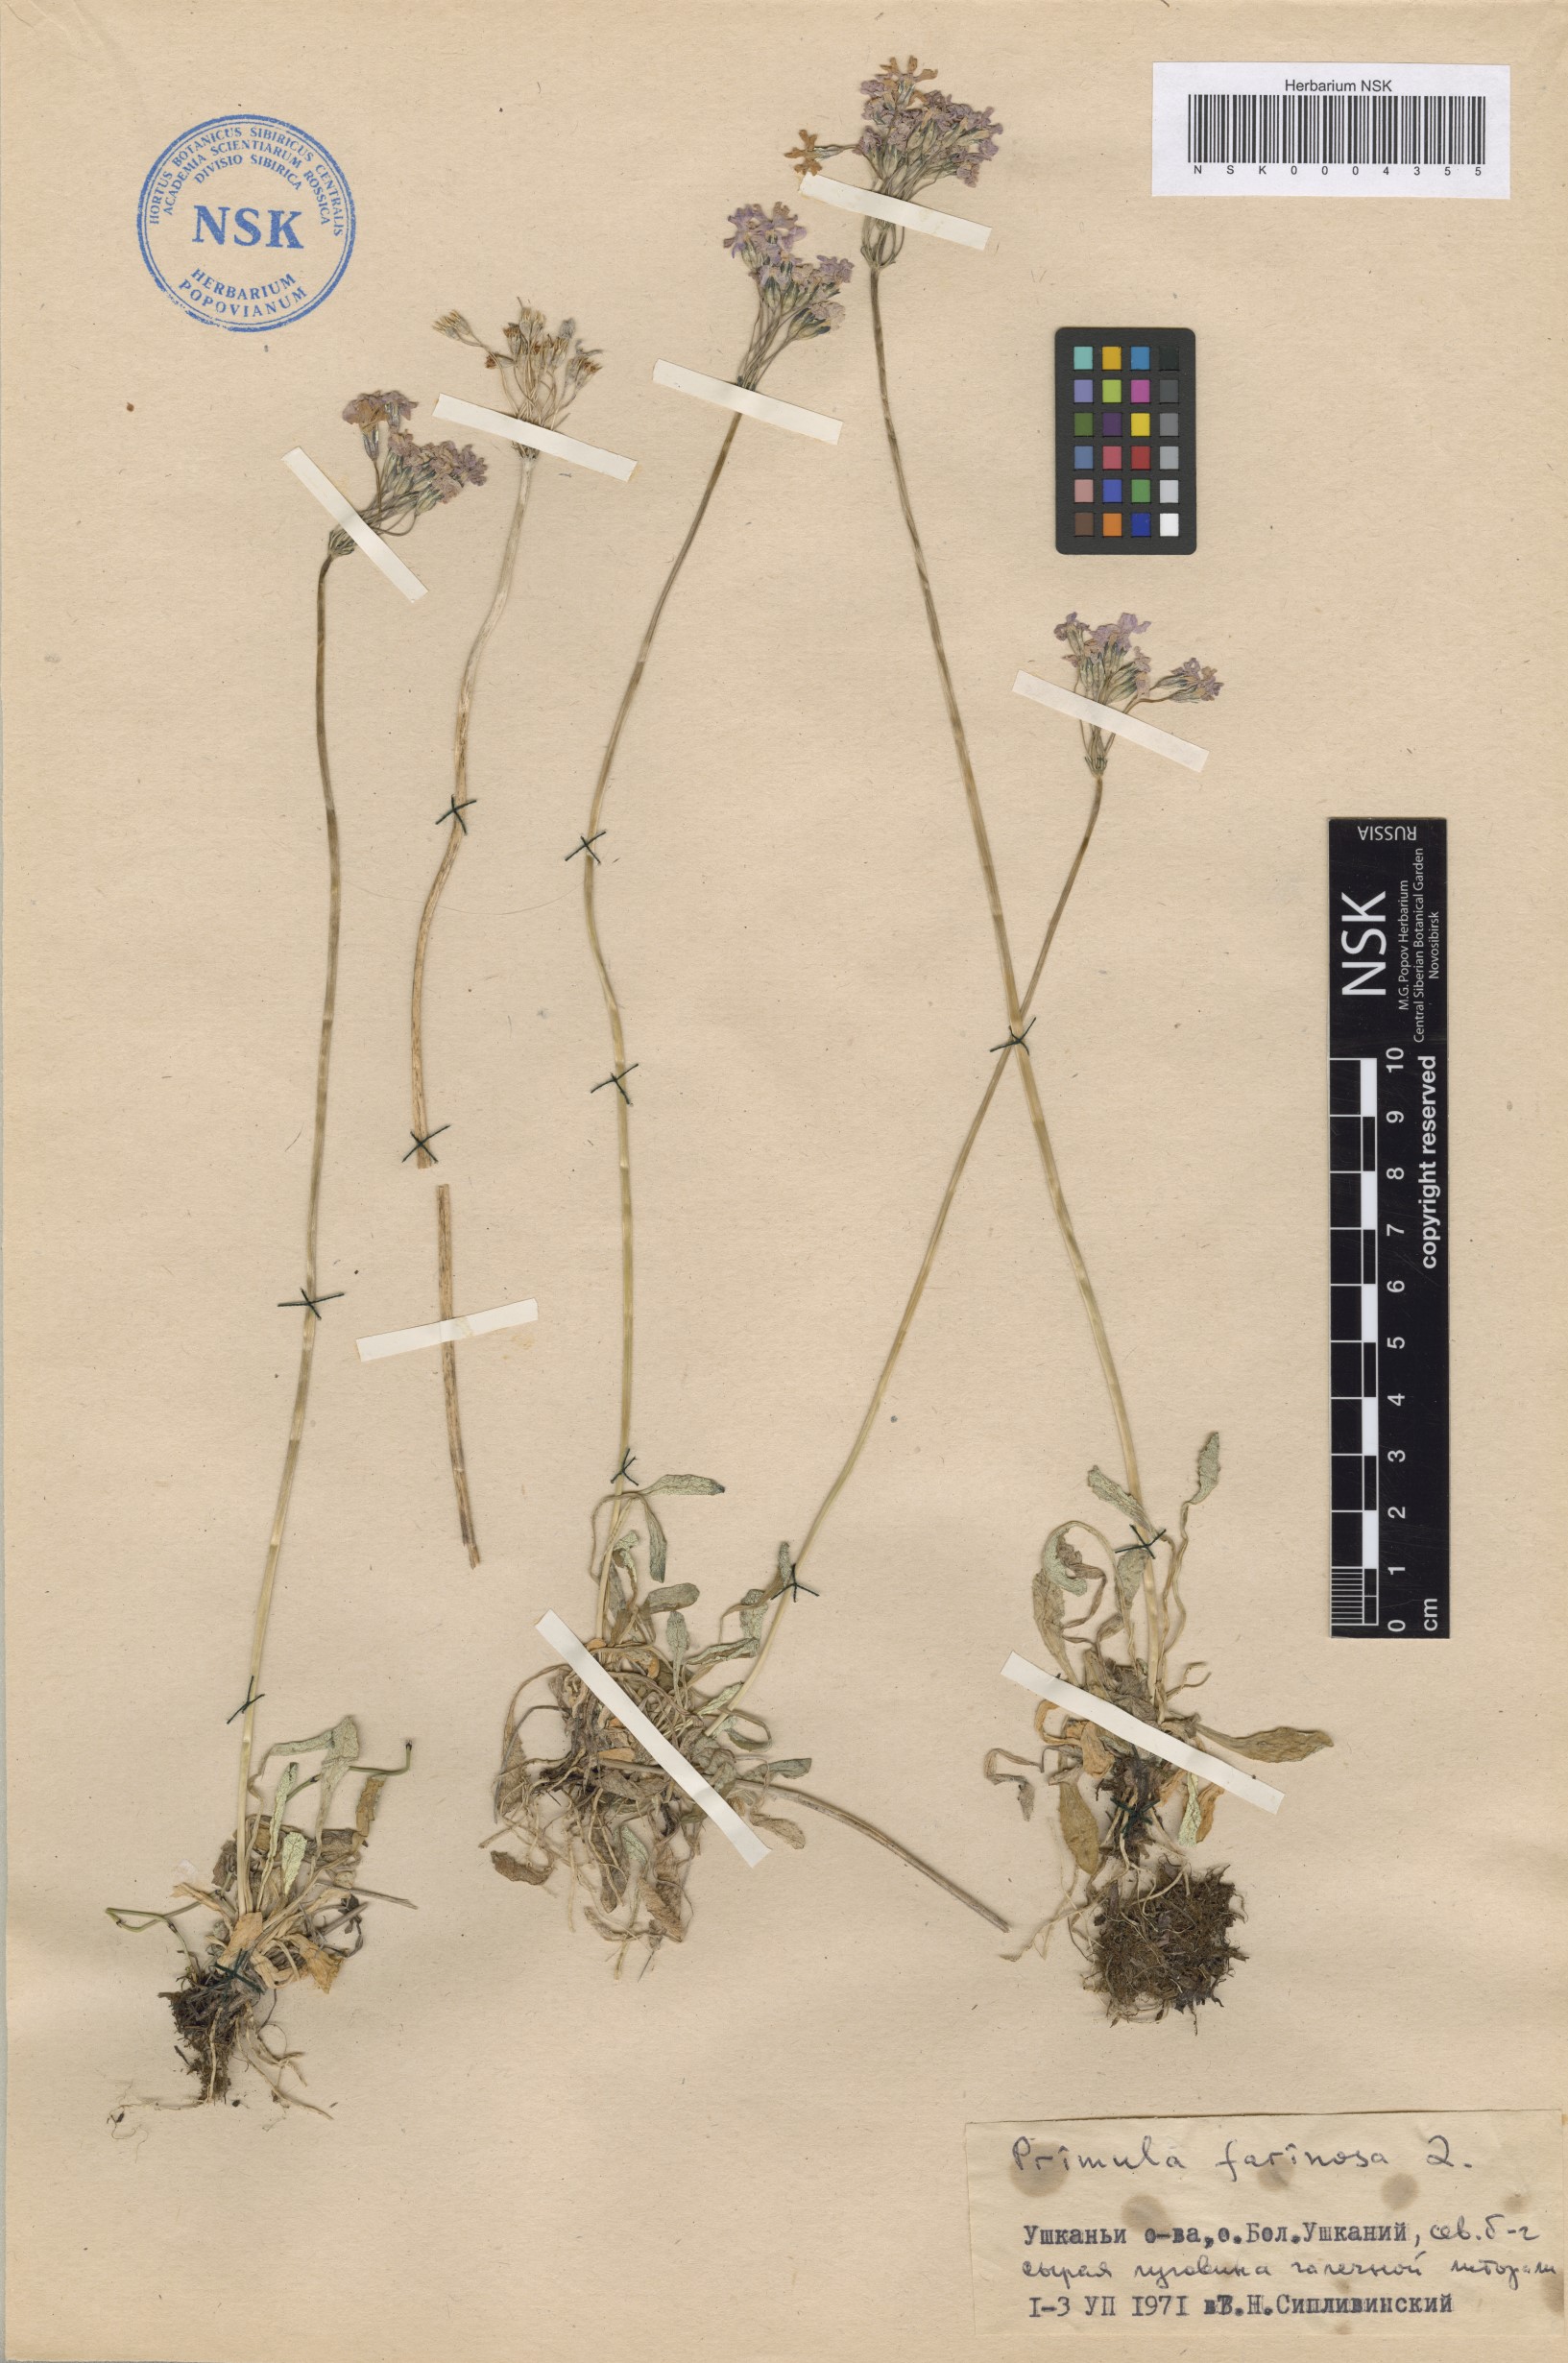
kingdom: Plantae
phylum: Tracheophyta
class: Magnoliopsida
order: Ericales
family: Primulaceae
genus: Primula
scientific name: Primula farinosa
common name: Bird's-eye primrose
